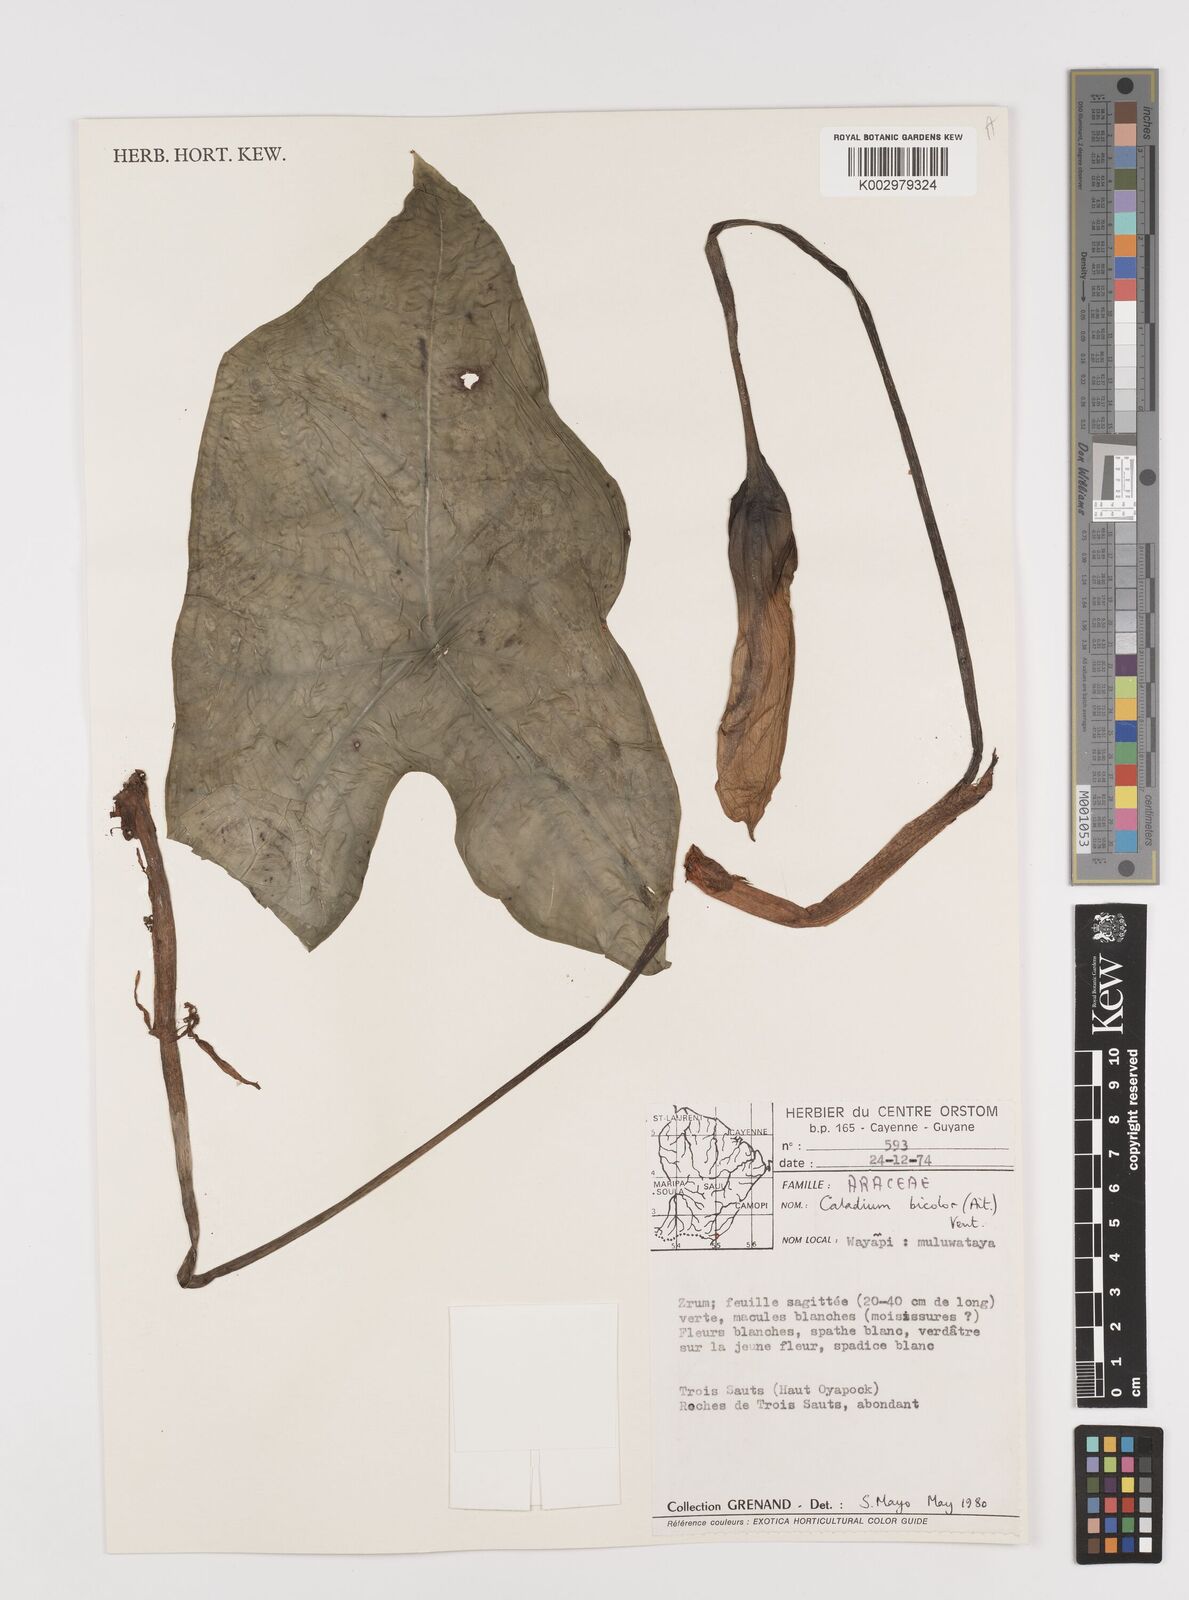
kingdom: Plantae
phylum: Tracheophyta
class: Liliopsida
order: Alismatales
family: Araceae
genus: Caladium
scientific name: Caladium bicolor
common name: Artist's pallet
